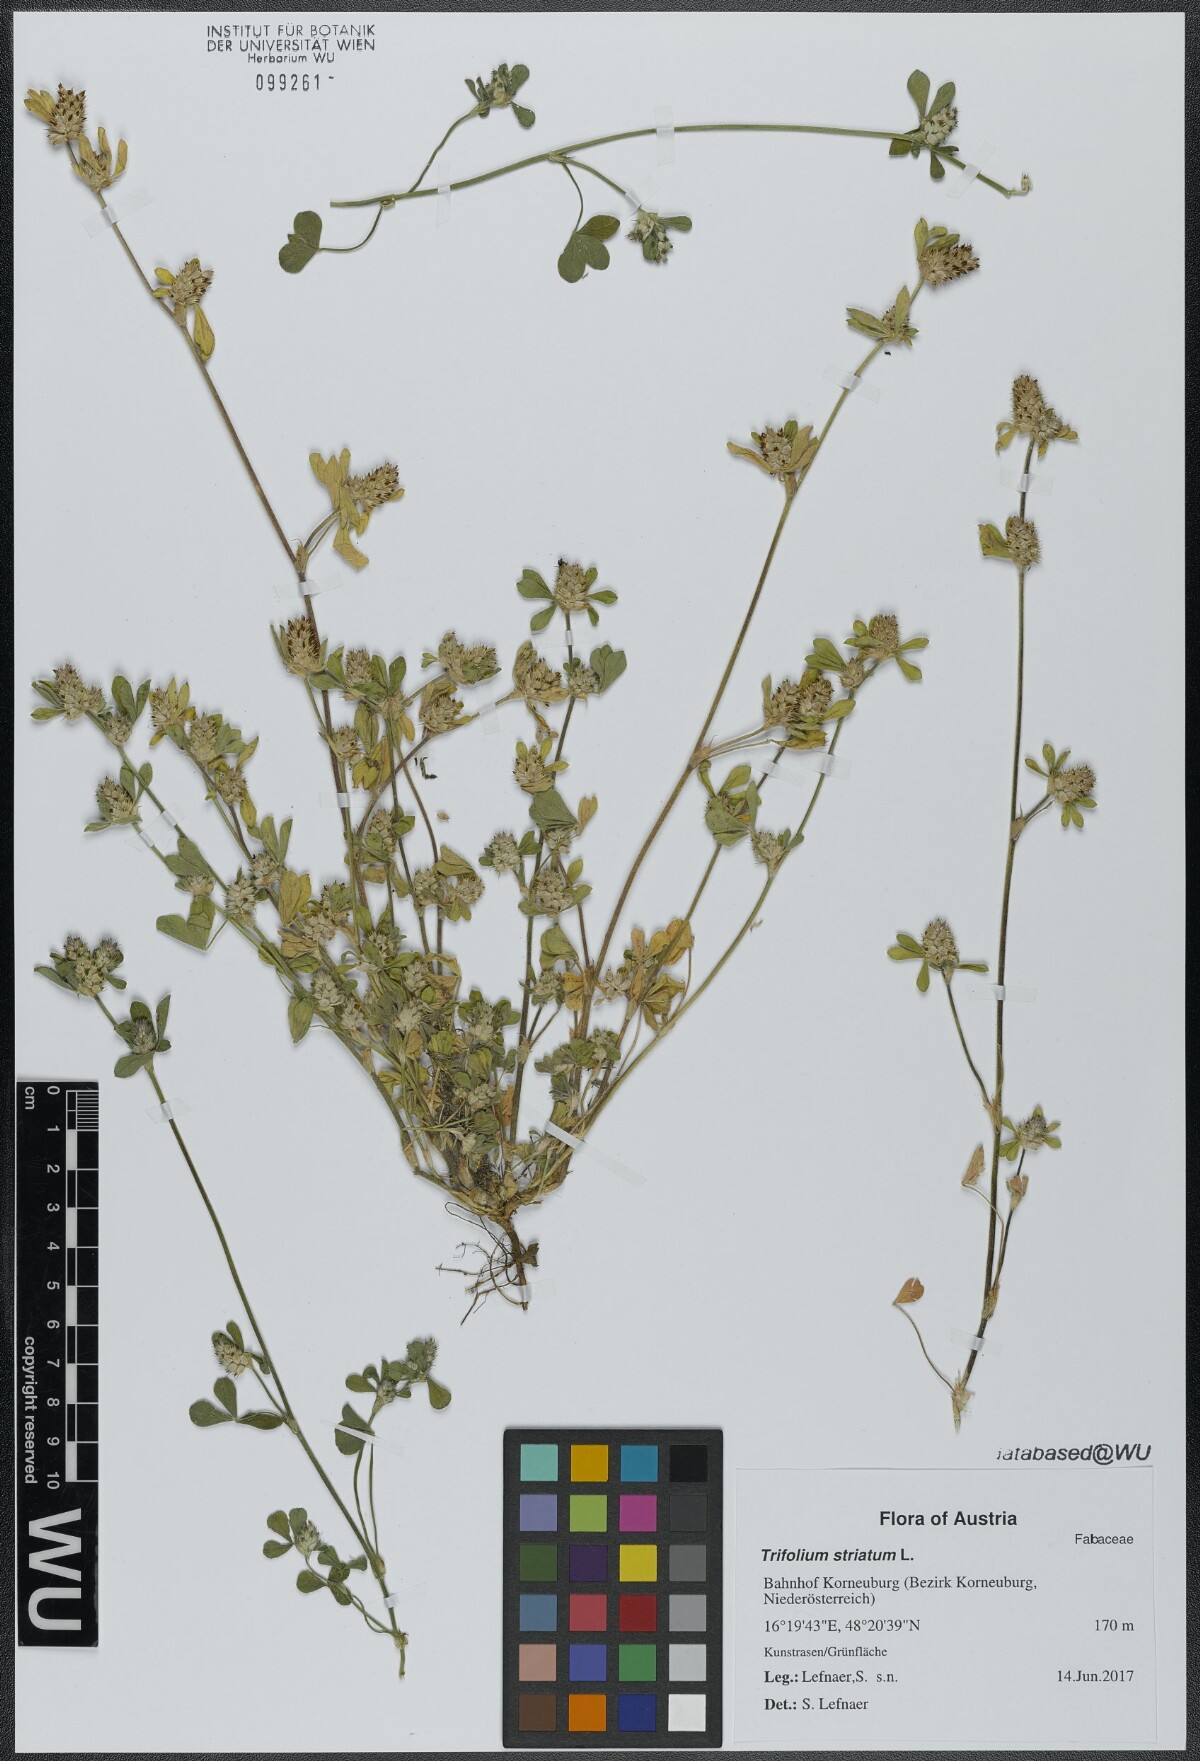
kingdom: Plantae
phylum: Tracheophyta
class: Magnoliopsida
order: Fabales
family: Fabaceae
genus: Trifolium
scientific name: Trifolium striatum
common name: Knotted clover
